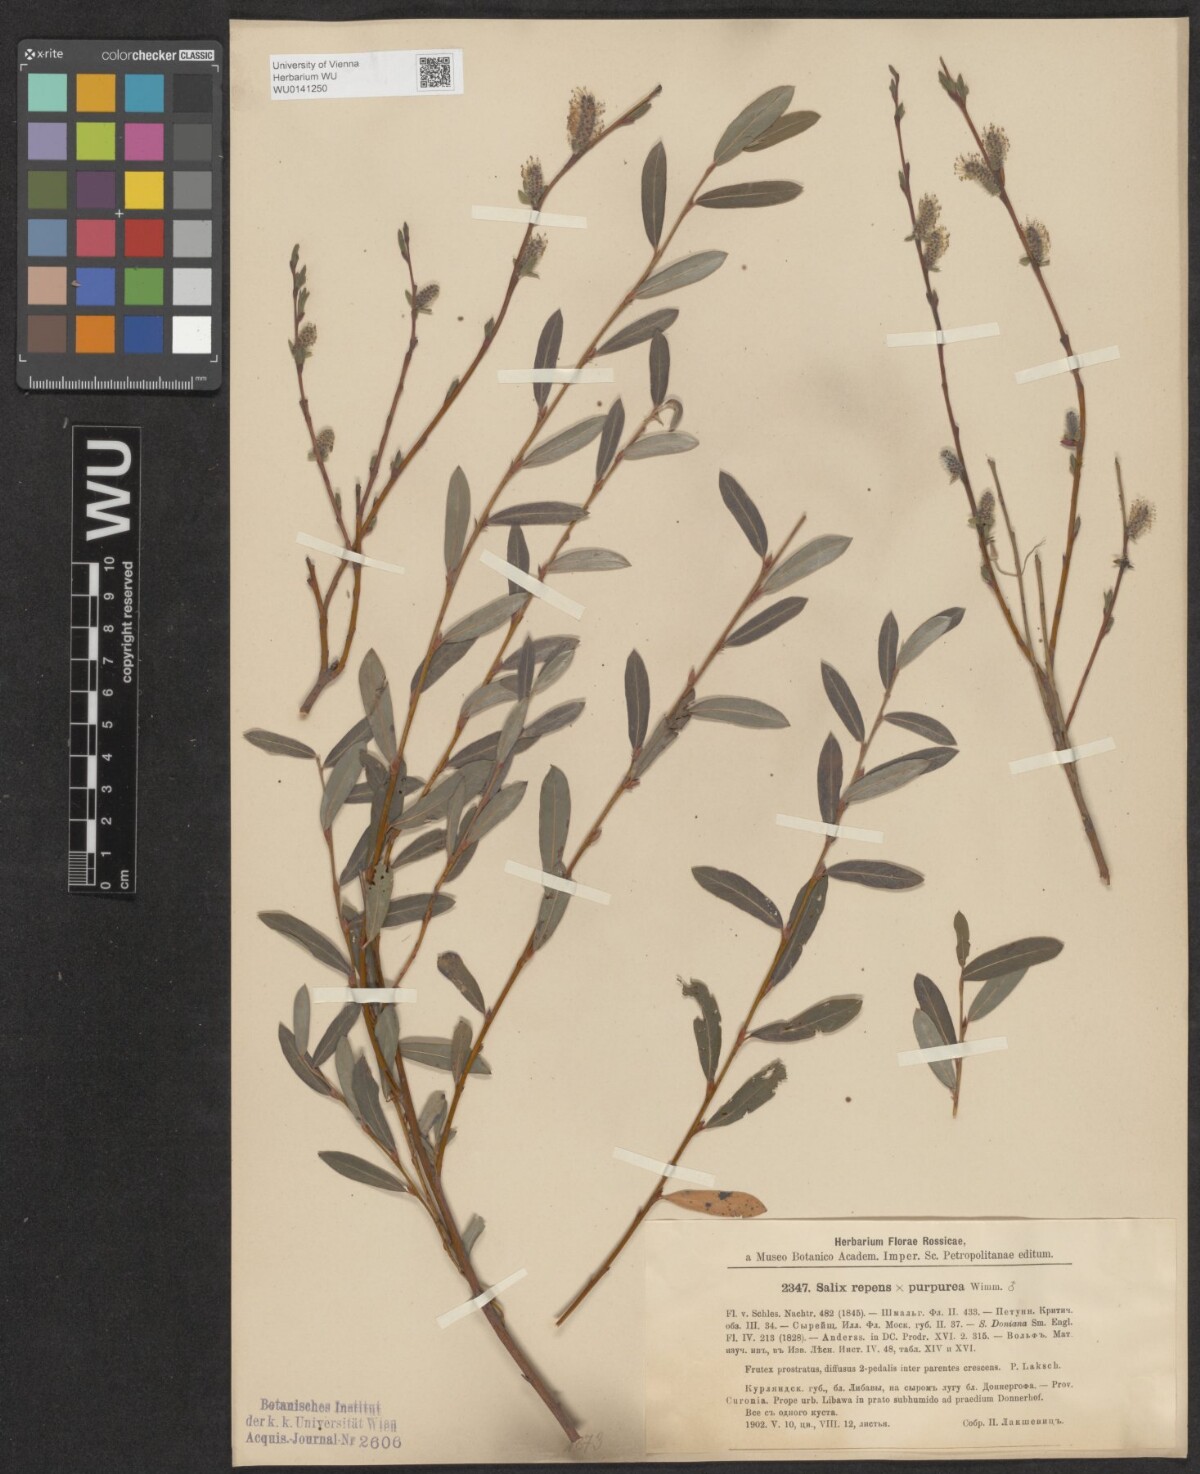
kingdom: Plantae
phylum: Tracheophyta
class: Magnoliopsida
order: Malpighiales
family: Salicaceae
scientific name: Salicaceae
